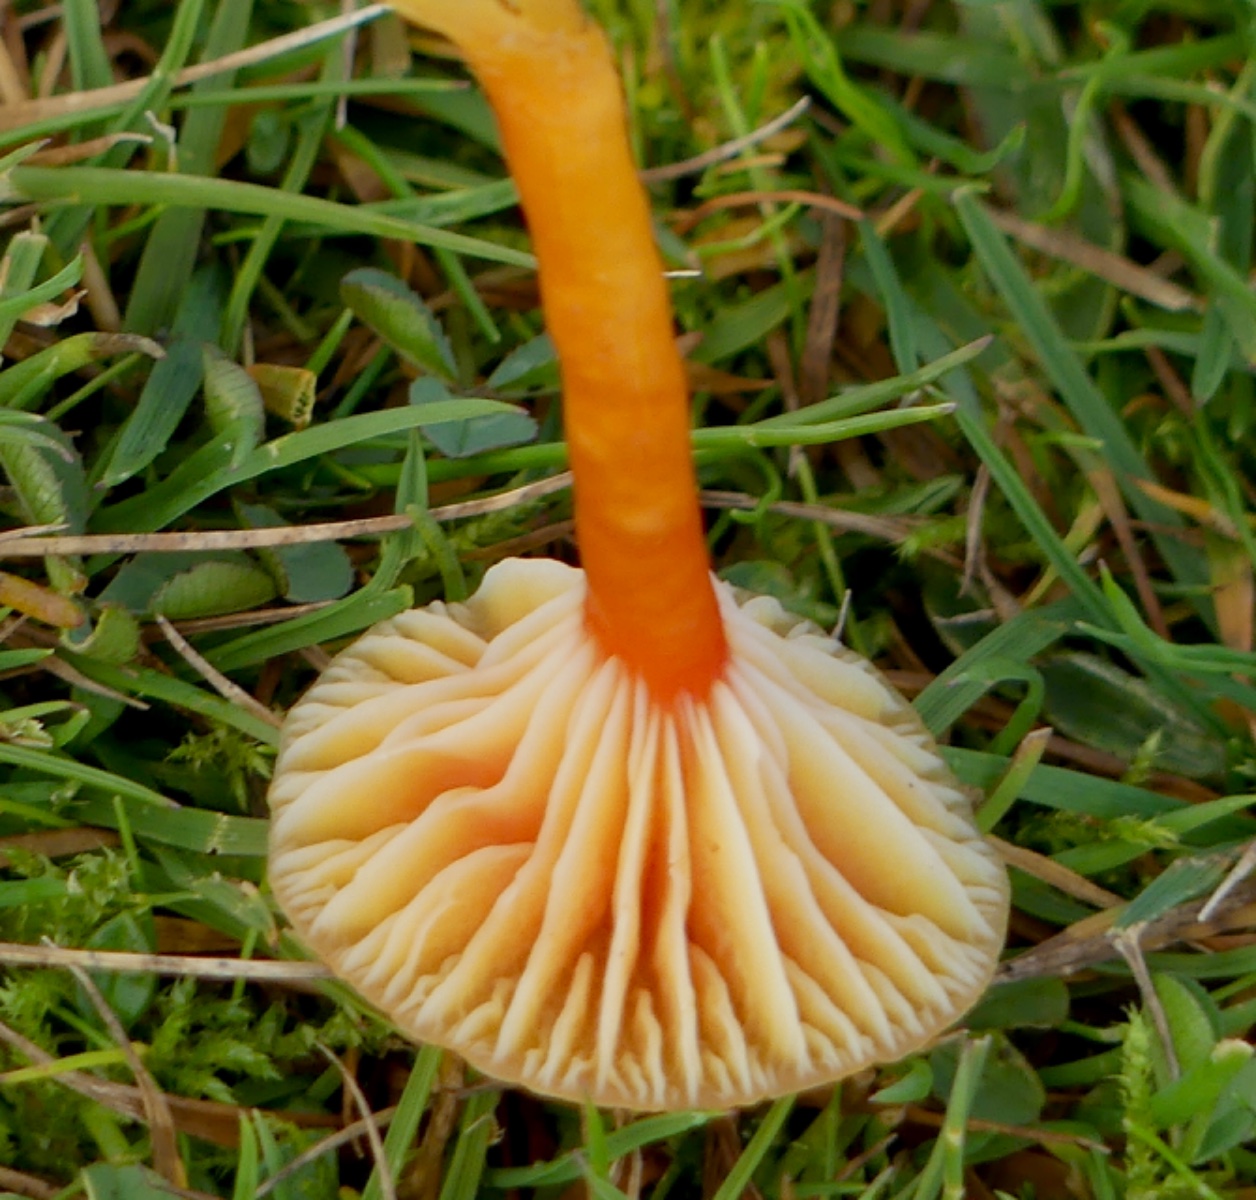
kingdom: Fungi
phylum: Basidiomycota
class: Agaricomycetes
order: Agaricales
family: Hygrophoraceae
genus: Hygrocybe
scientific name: Hygrocybe insipida
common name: liden vokshat
